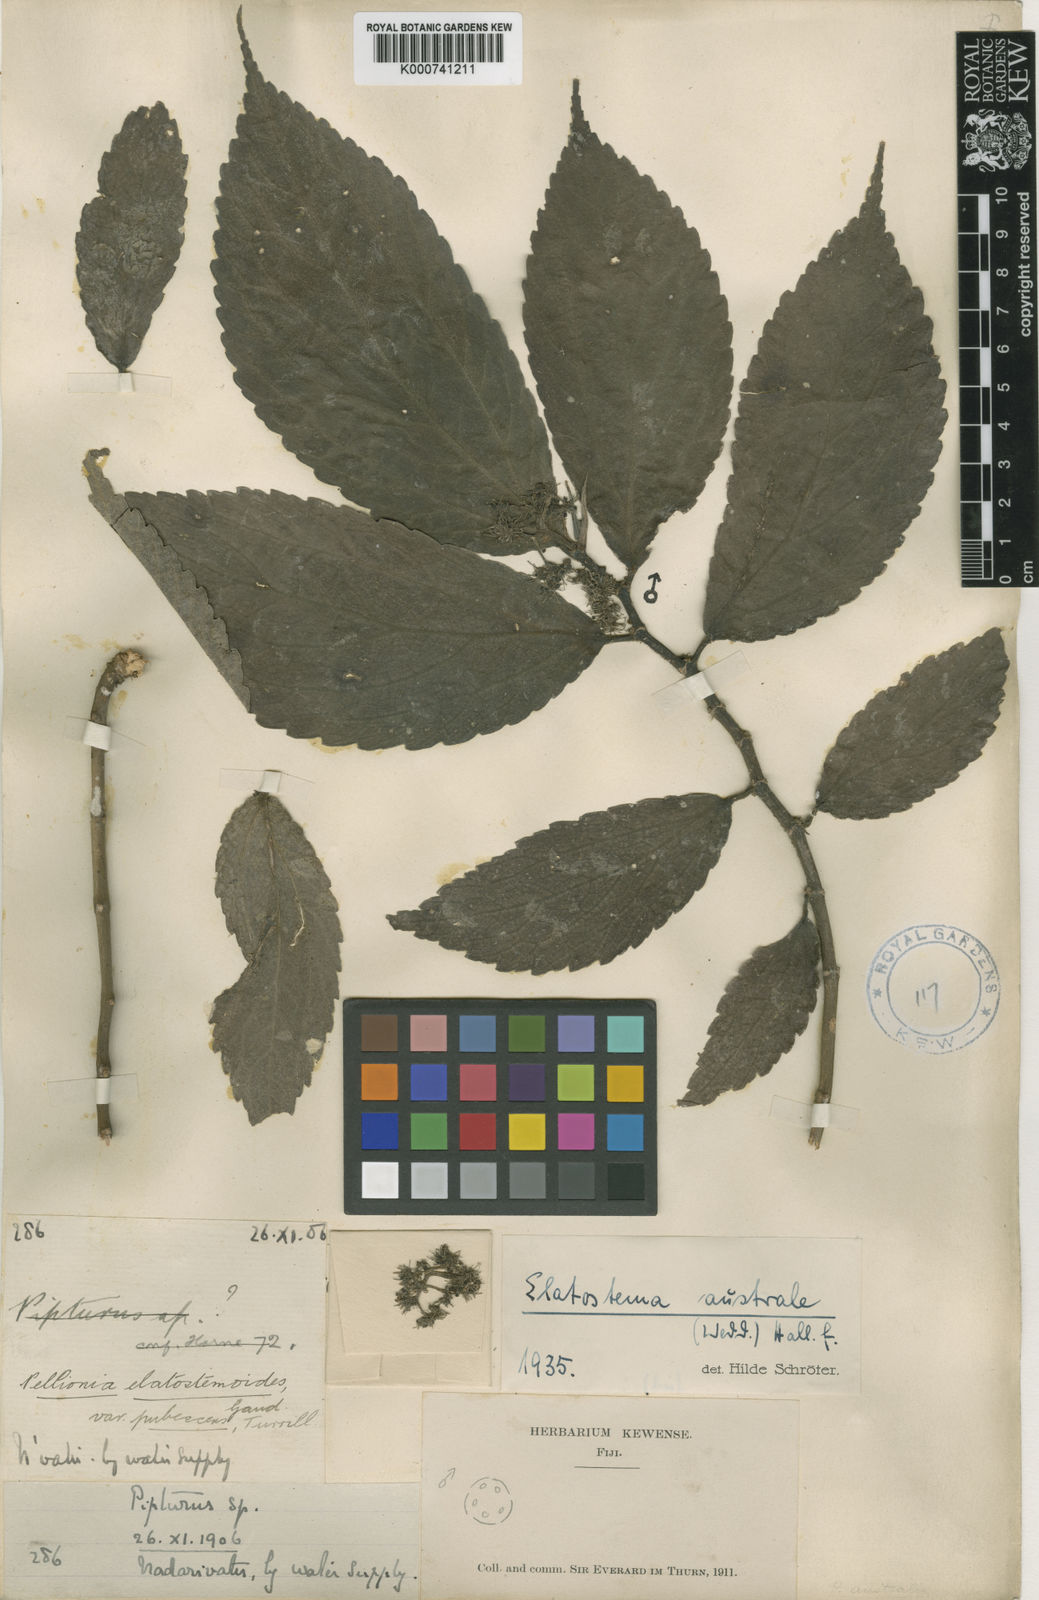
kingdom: Plantae
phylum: Tracheophyta
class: Magnoliopsida
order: Rosales
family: Urticaceae
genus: Elatostematoides
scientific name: Elatostematoides australe
